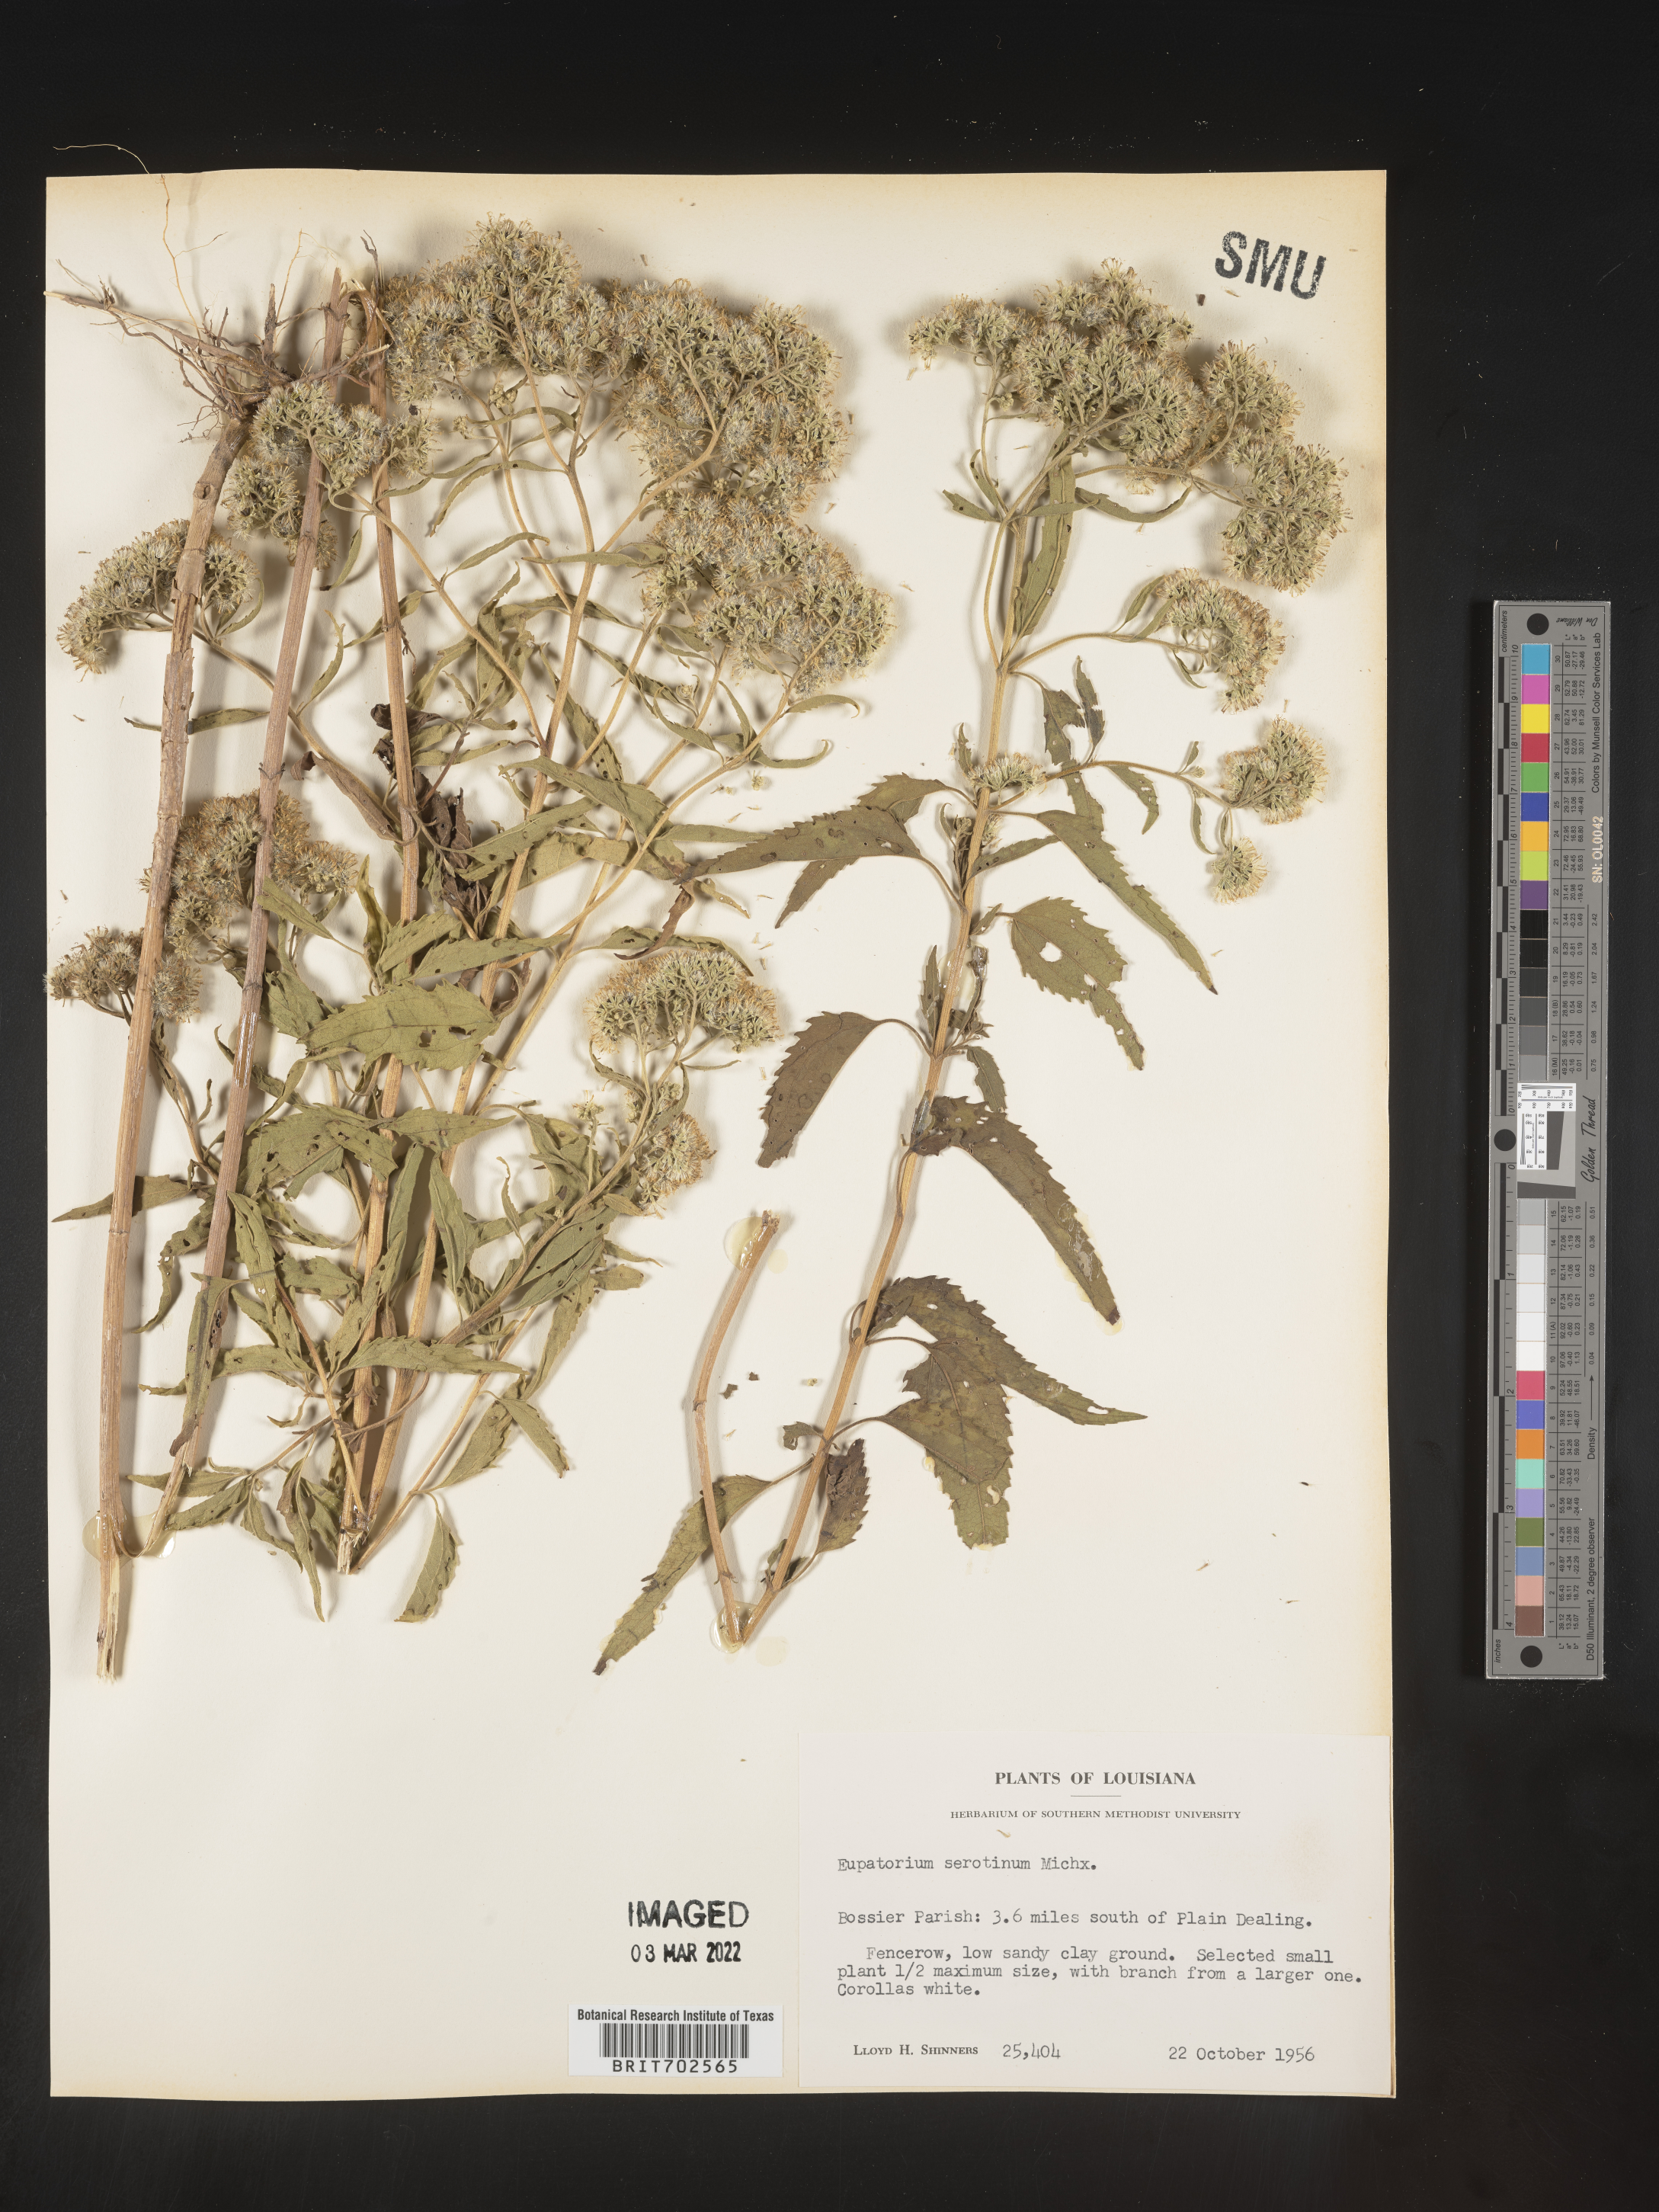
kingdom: Plantae
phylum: Tracheophyta
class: Magnoliopsida
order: Asterales
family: Asteraceae
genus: Eupatorium
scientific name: Eupatorium serotinum
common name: Late boneset
